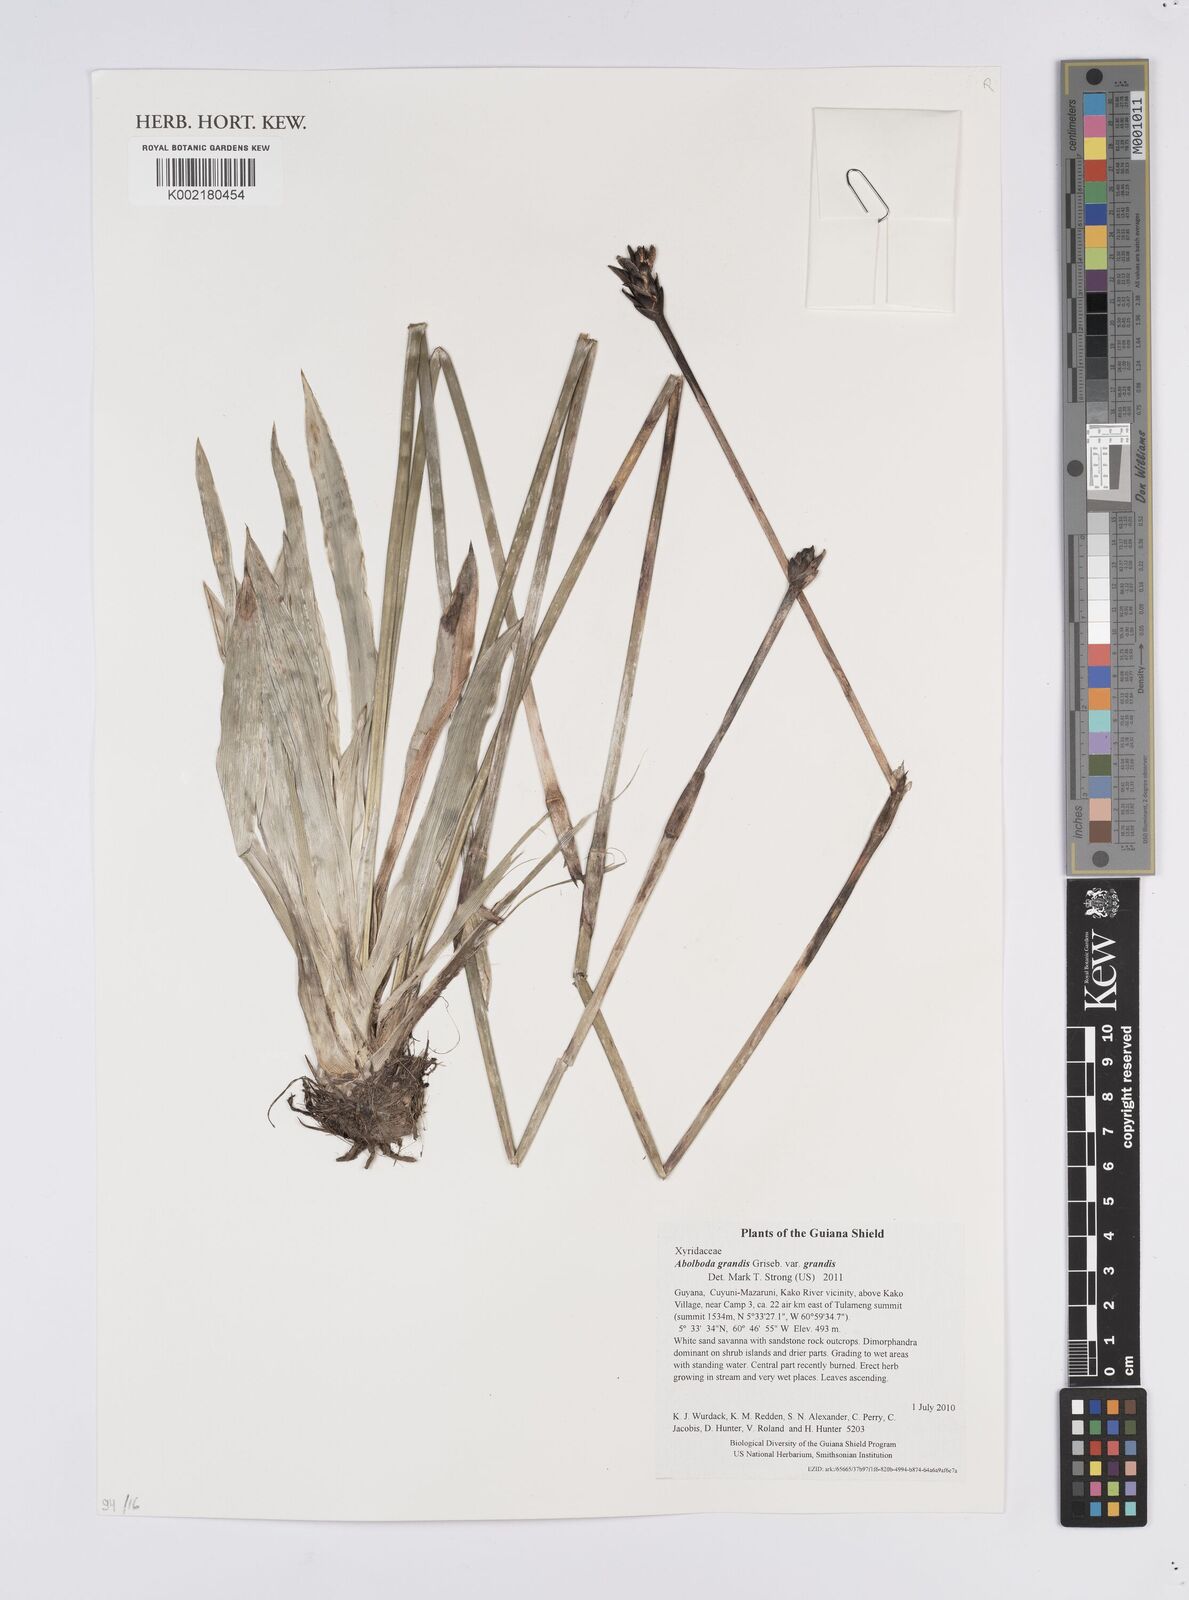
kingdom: Plantae
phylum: Tracheophyta
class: Liliopsida
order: Poales
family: Xyridaceae
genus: Abolboda
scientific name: Abolboda grandis
